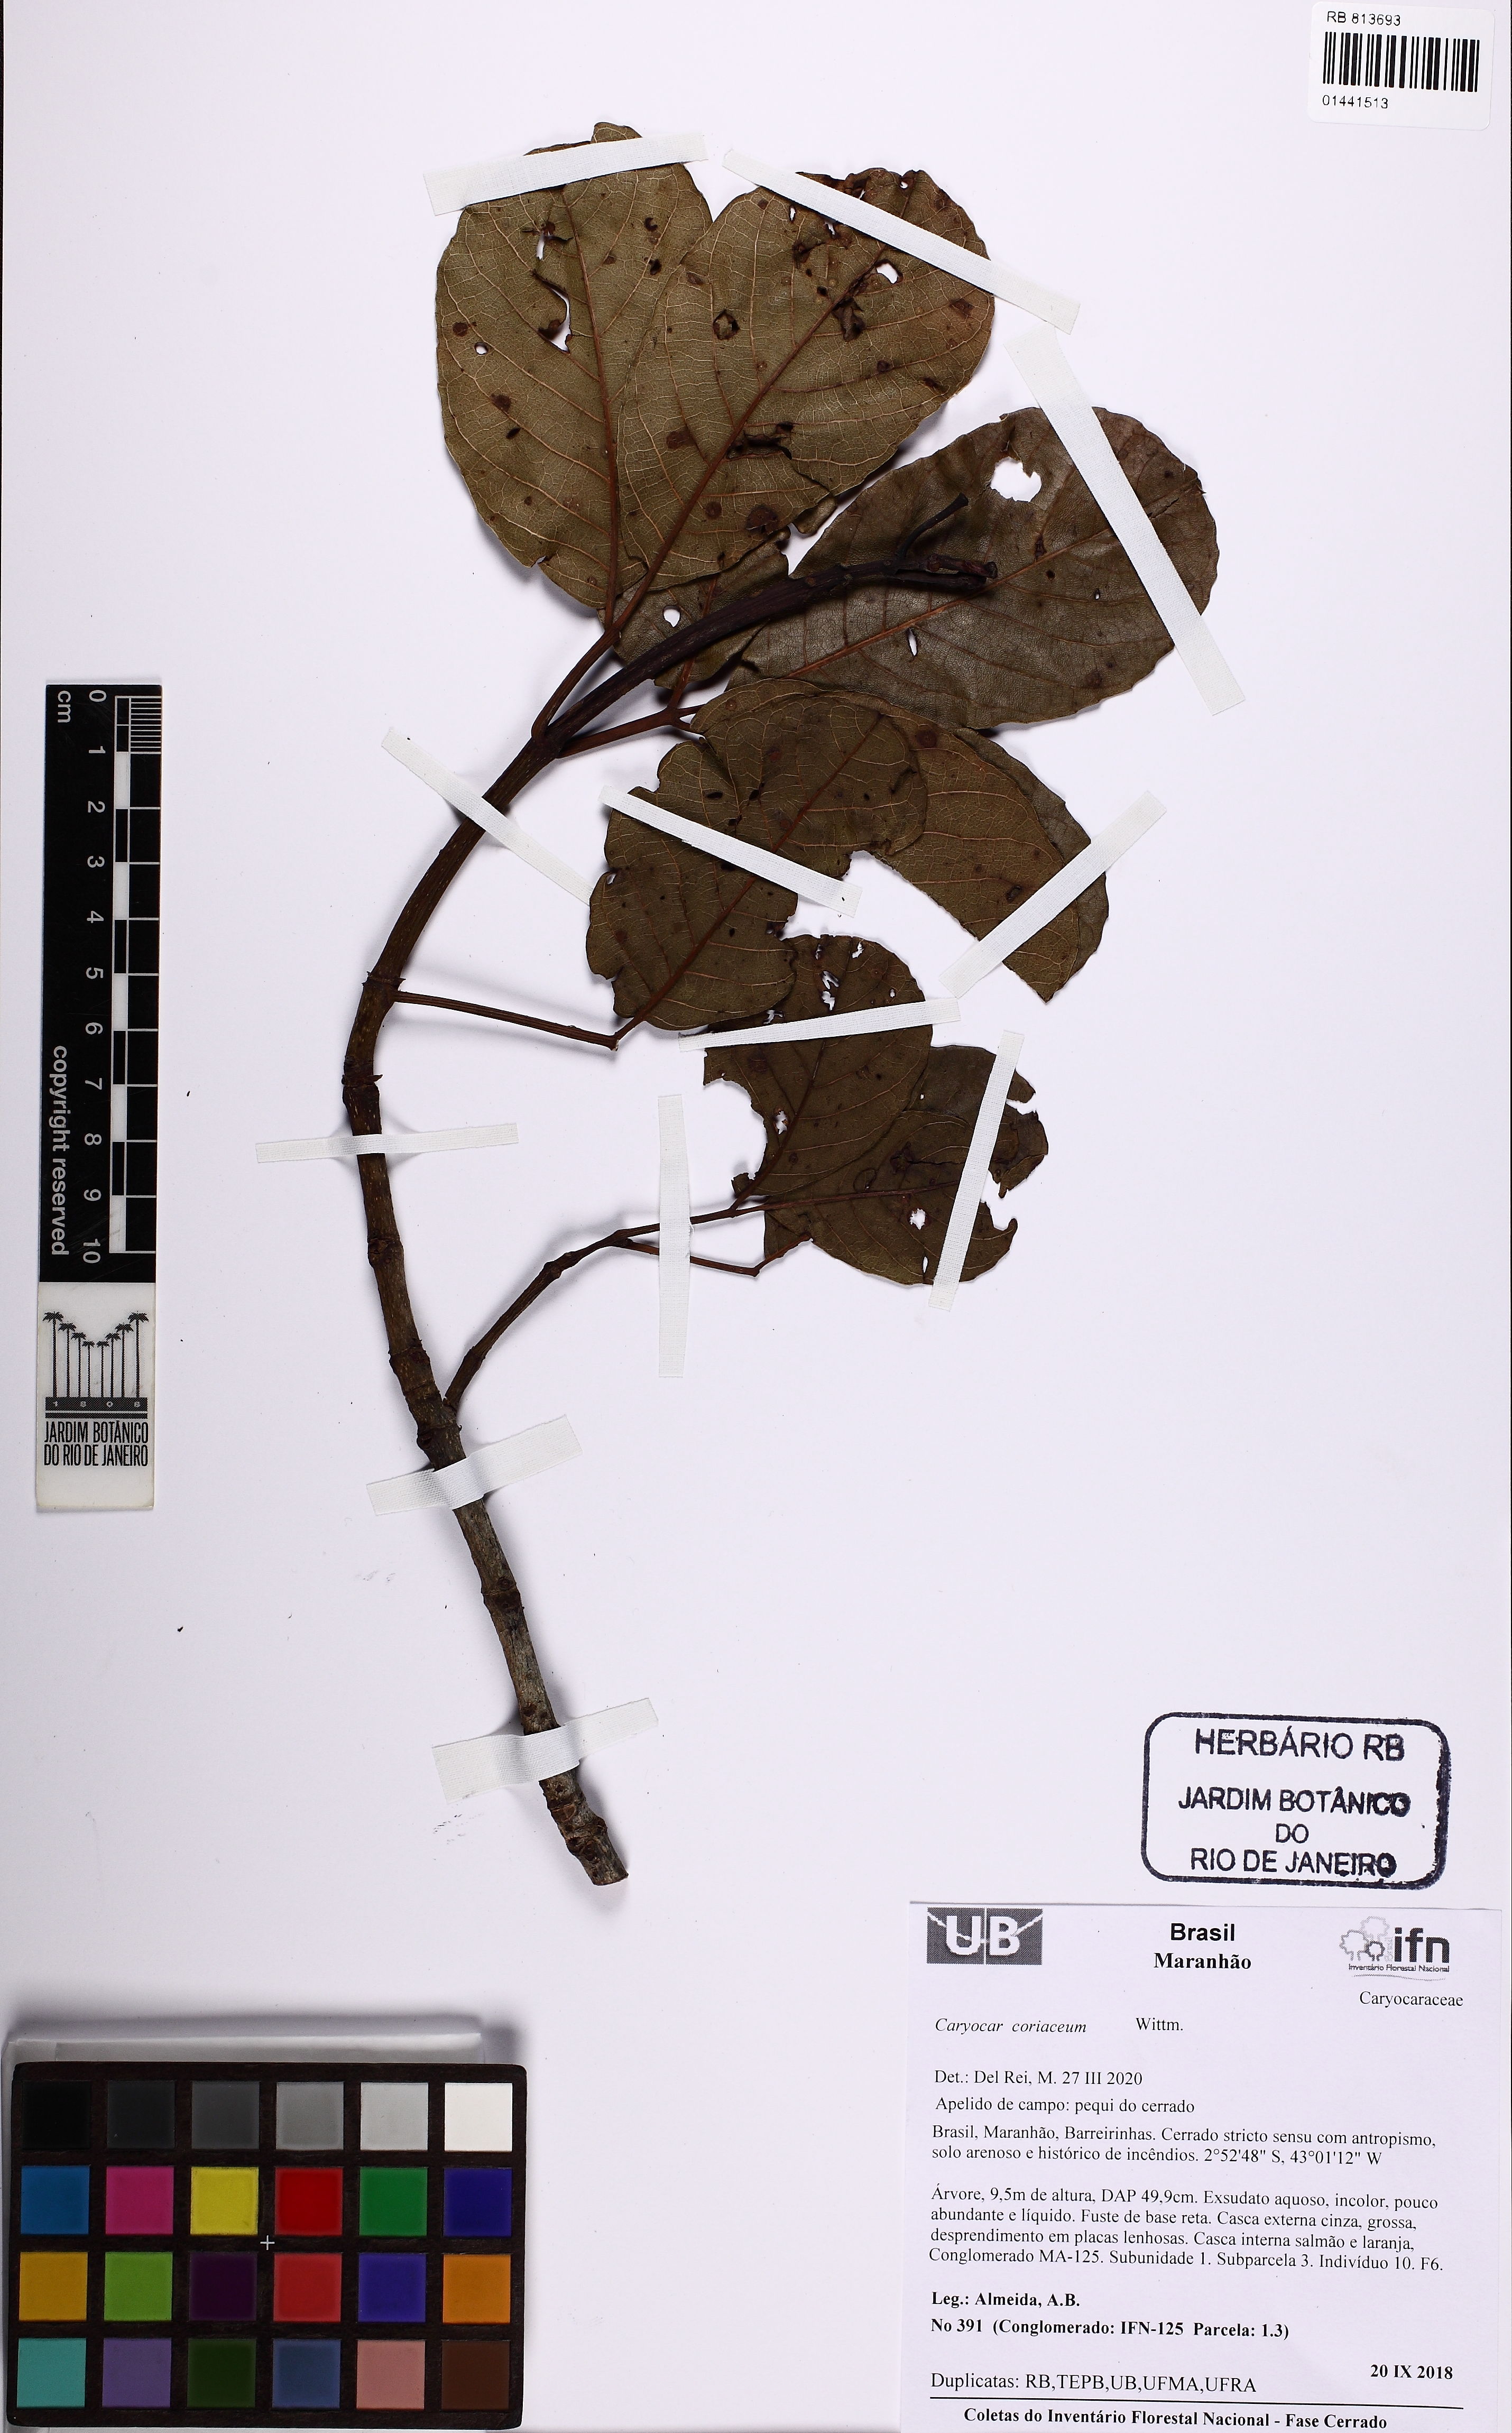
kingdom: Plantae
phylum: Tracheophyta
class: Magnoliopsida
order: Malpighiales
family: Caryocaraceae
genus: Caryocar
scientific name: Caryocar coriaceum
